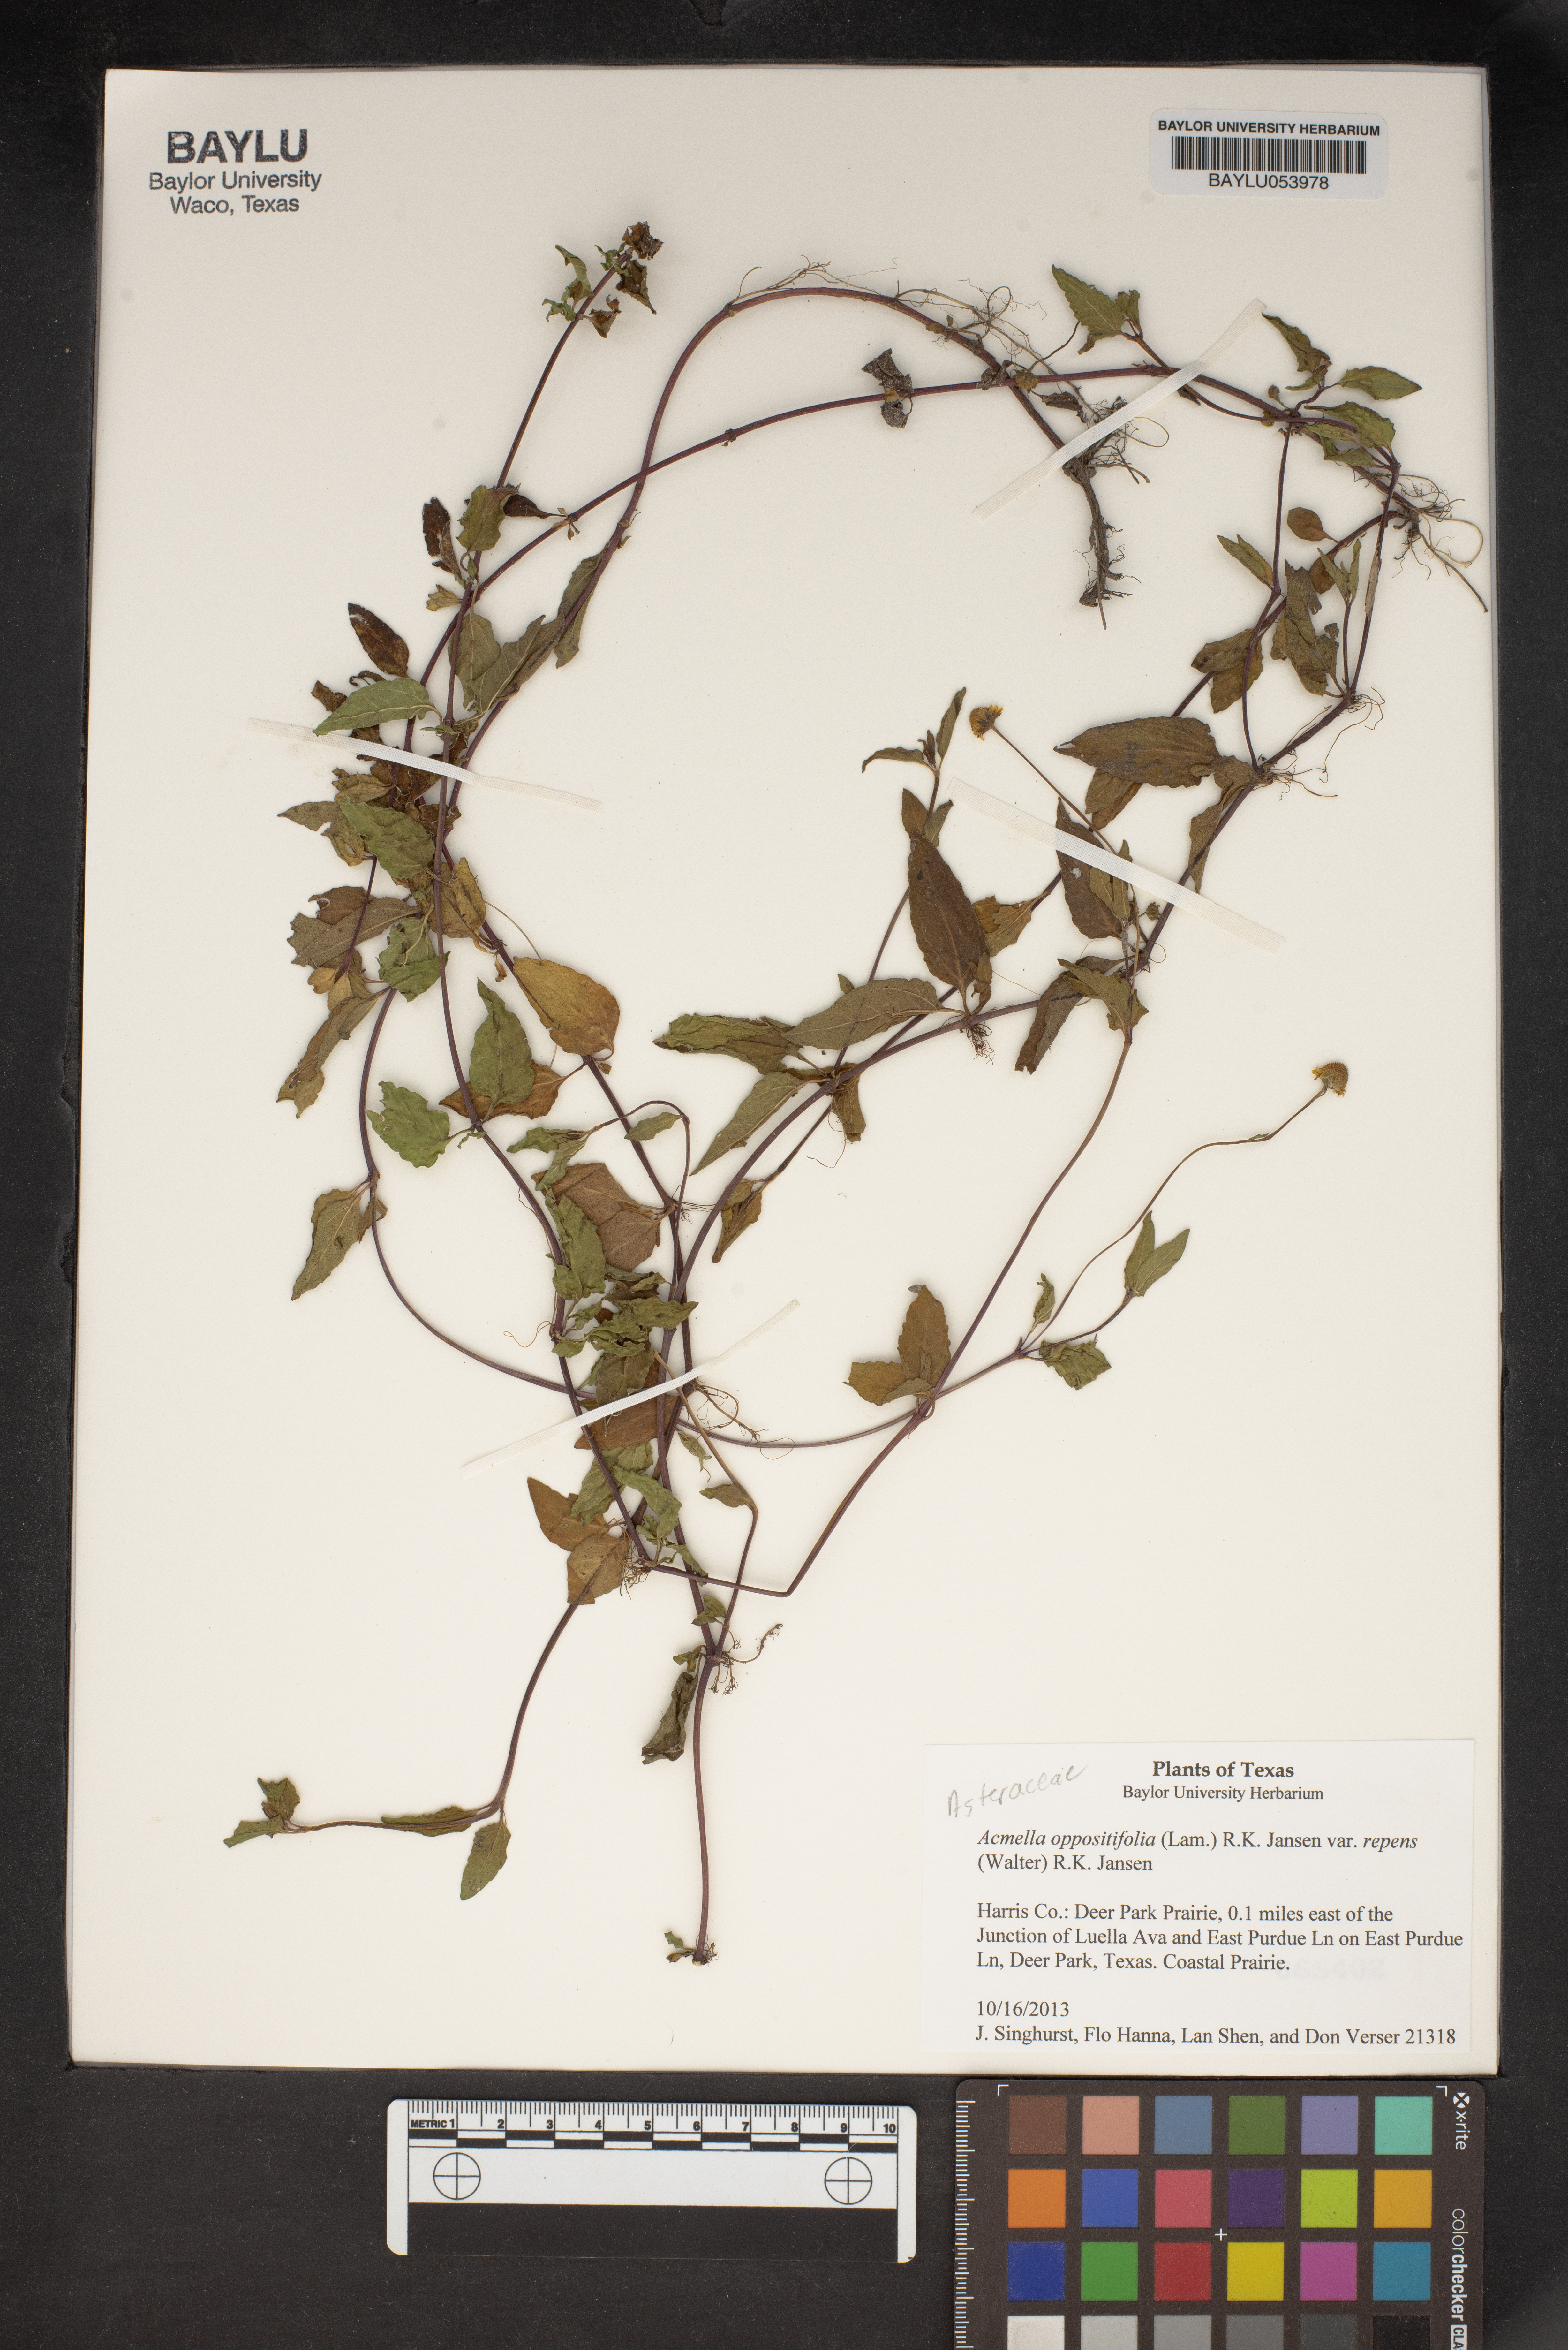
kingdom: Plantae
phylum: Tracheophyta
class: Magnoliopsida
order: Asterales
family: Asteraceae
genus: Heliopsis
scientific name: Heliopsis buphthalmoides
